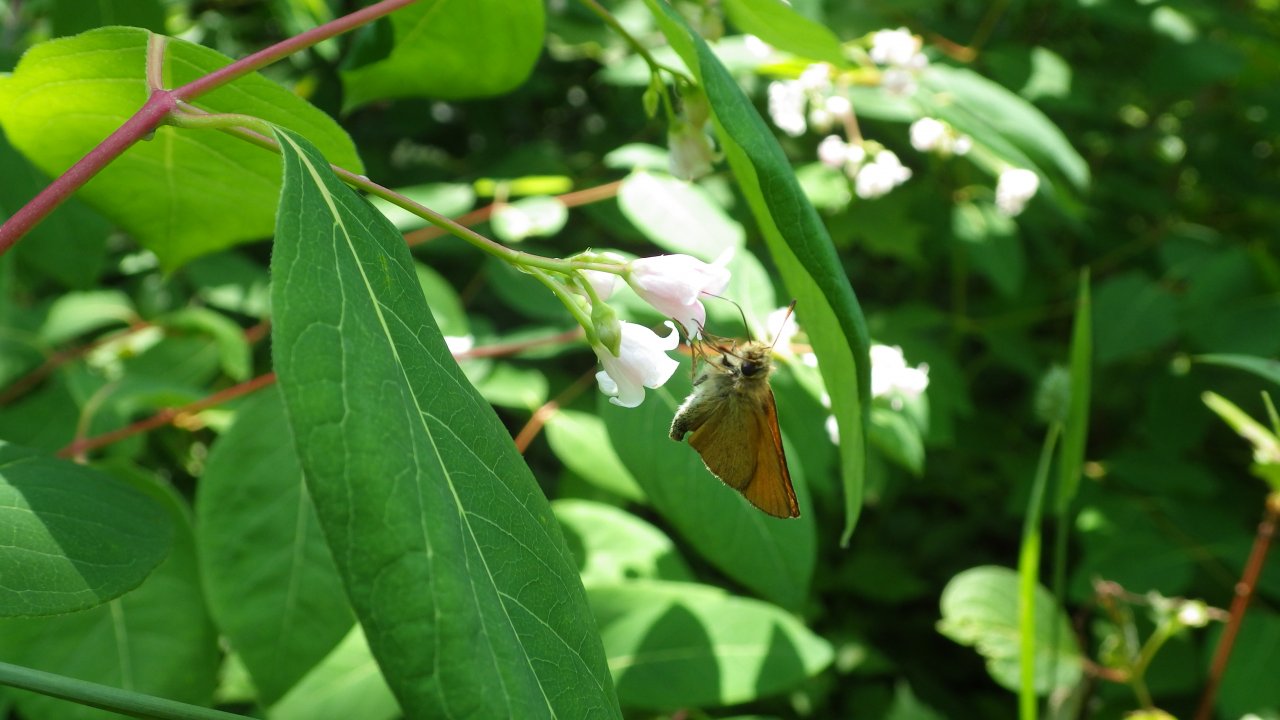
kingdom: Animalia
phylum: Arthropoda
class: Insecta
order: Lepidoptera
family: Hesperiidae
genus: Thymelicus
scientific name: Thymelicus lineola
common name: European Skipper
